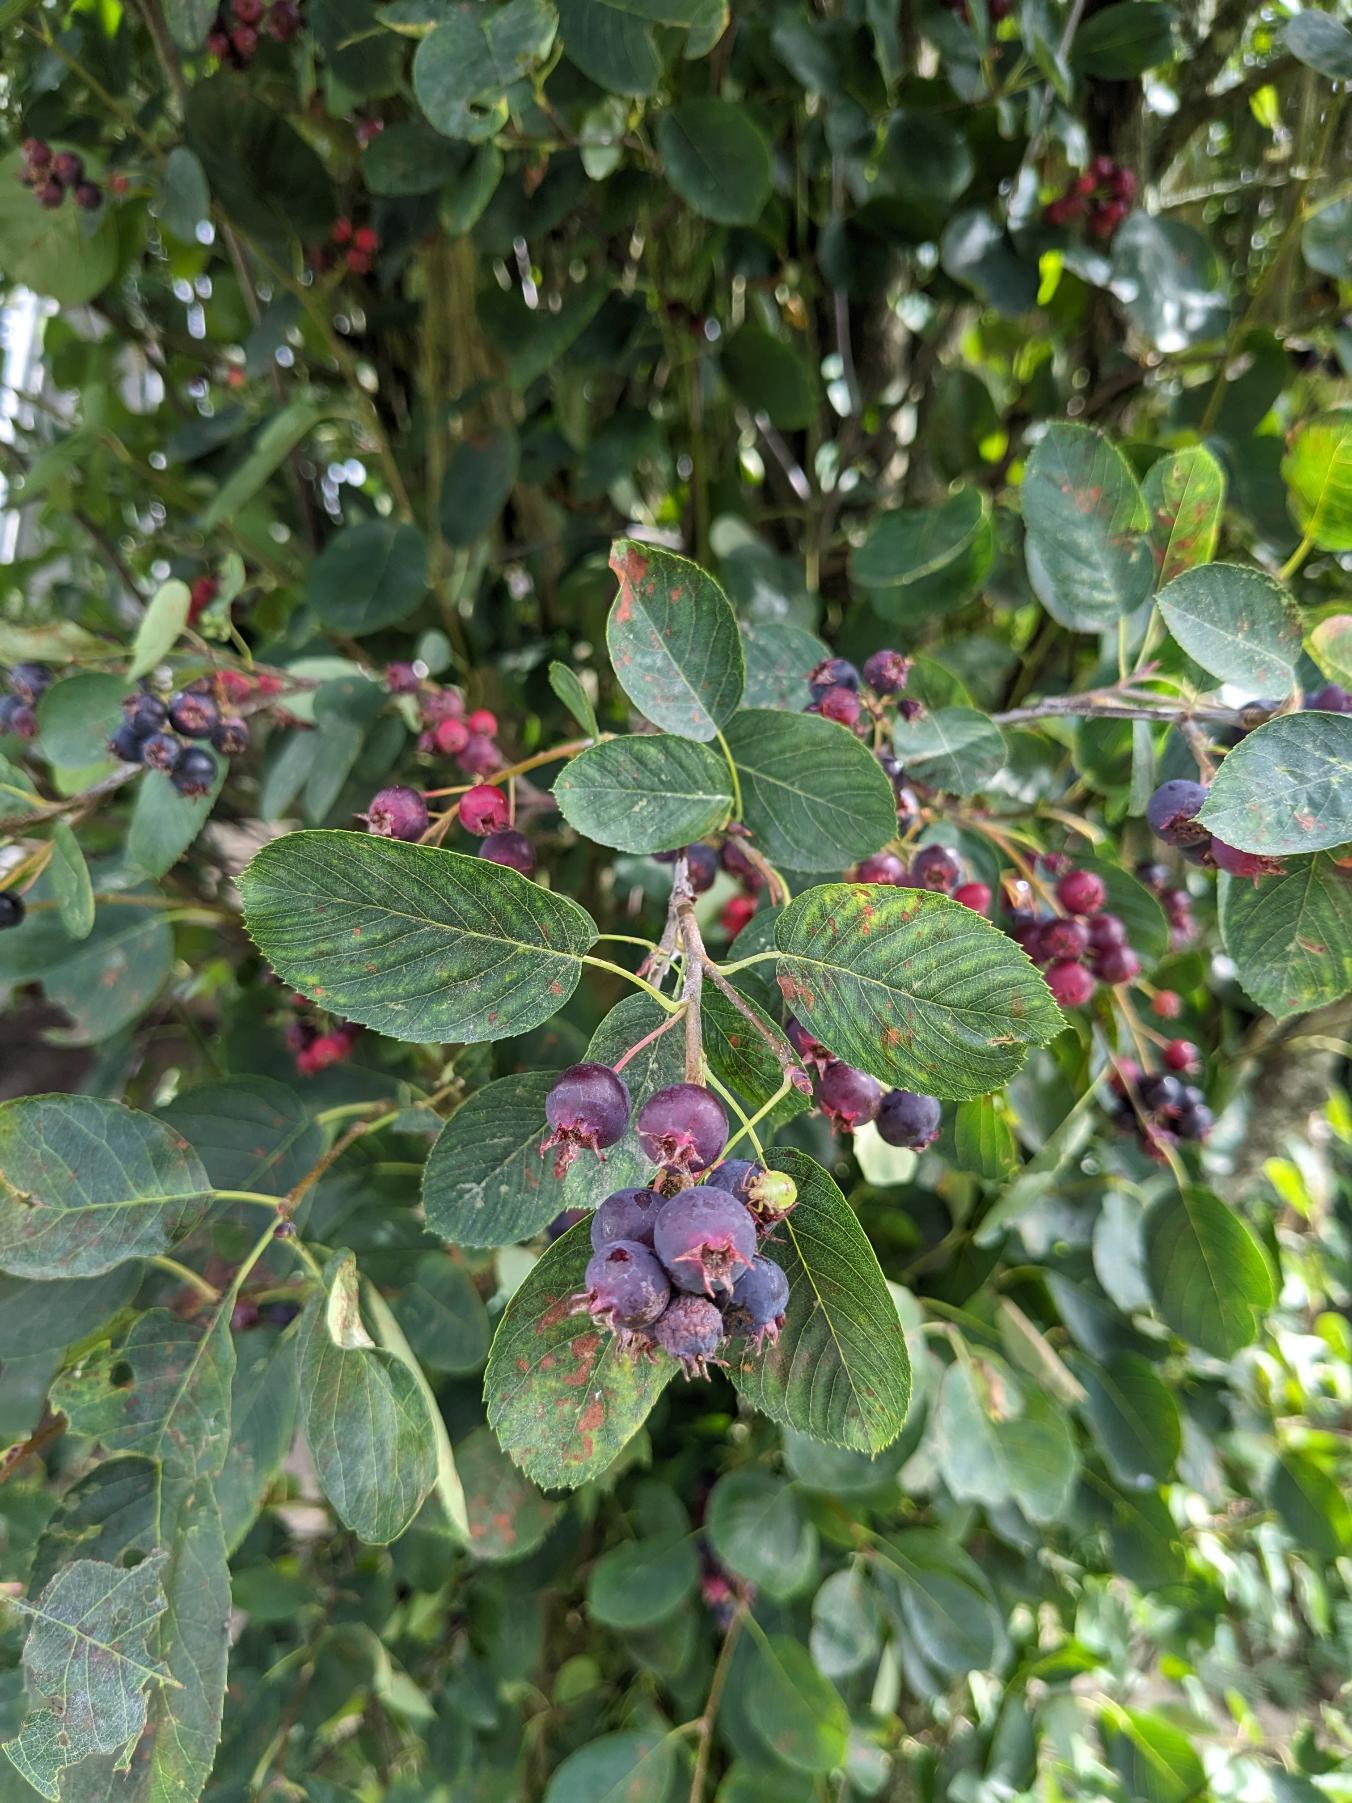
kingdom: Plantae
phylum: Tracheophyta
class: Magnoliopsida
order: Rosales
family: Rosaceae
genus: Amelanchier
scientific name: Amelanchier humilis
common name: Aks-bærmispel
